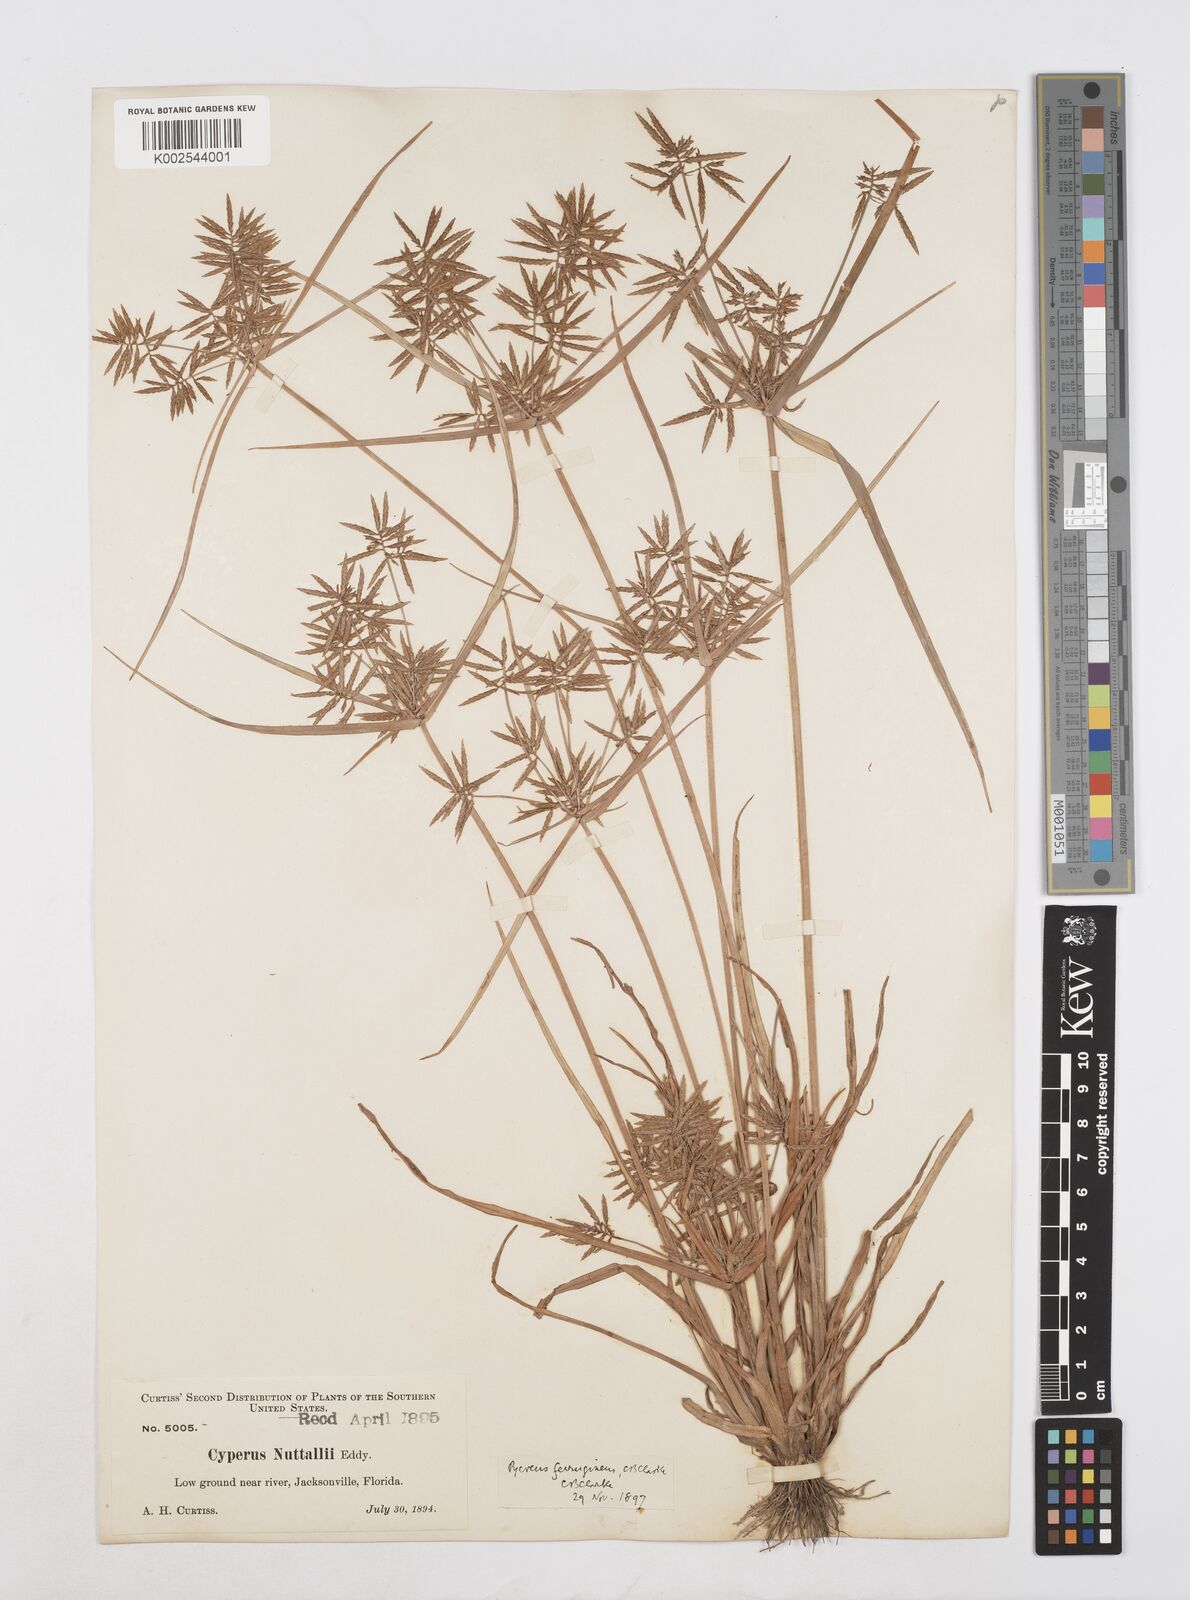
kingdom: Plantae
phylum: Tracheophyta
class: Liliopsida
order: Poales
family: Cyperaceae
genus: Cyperus
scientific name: Cyperus filicinus
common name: Fern flatsedge
